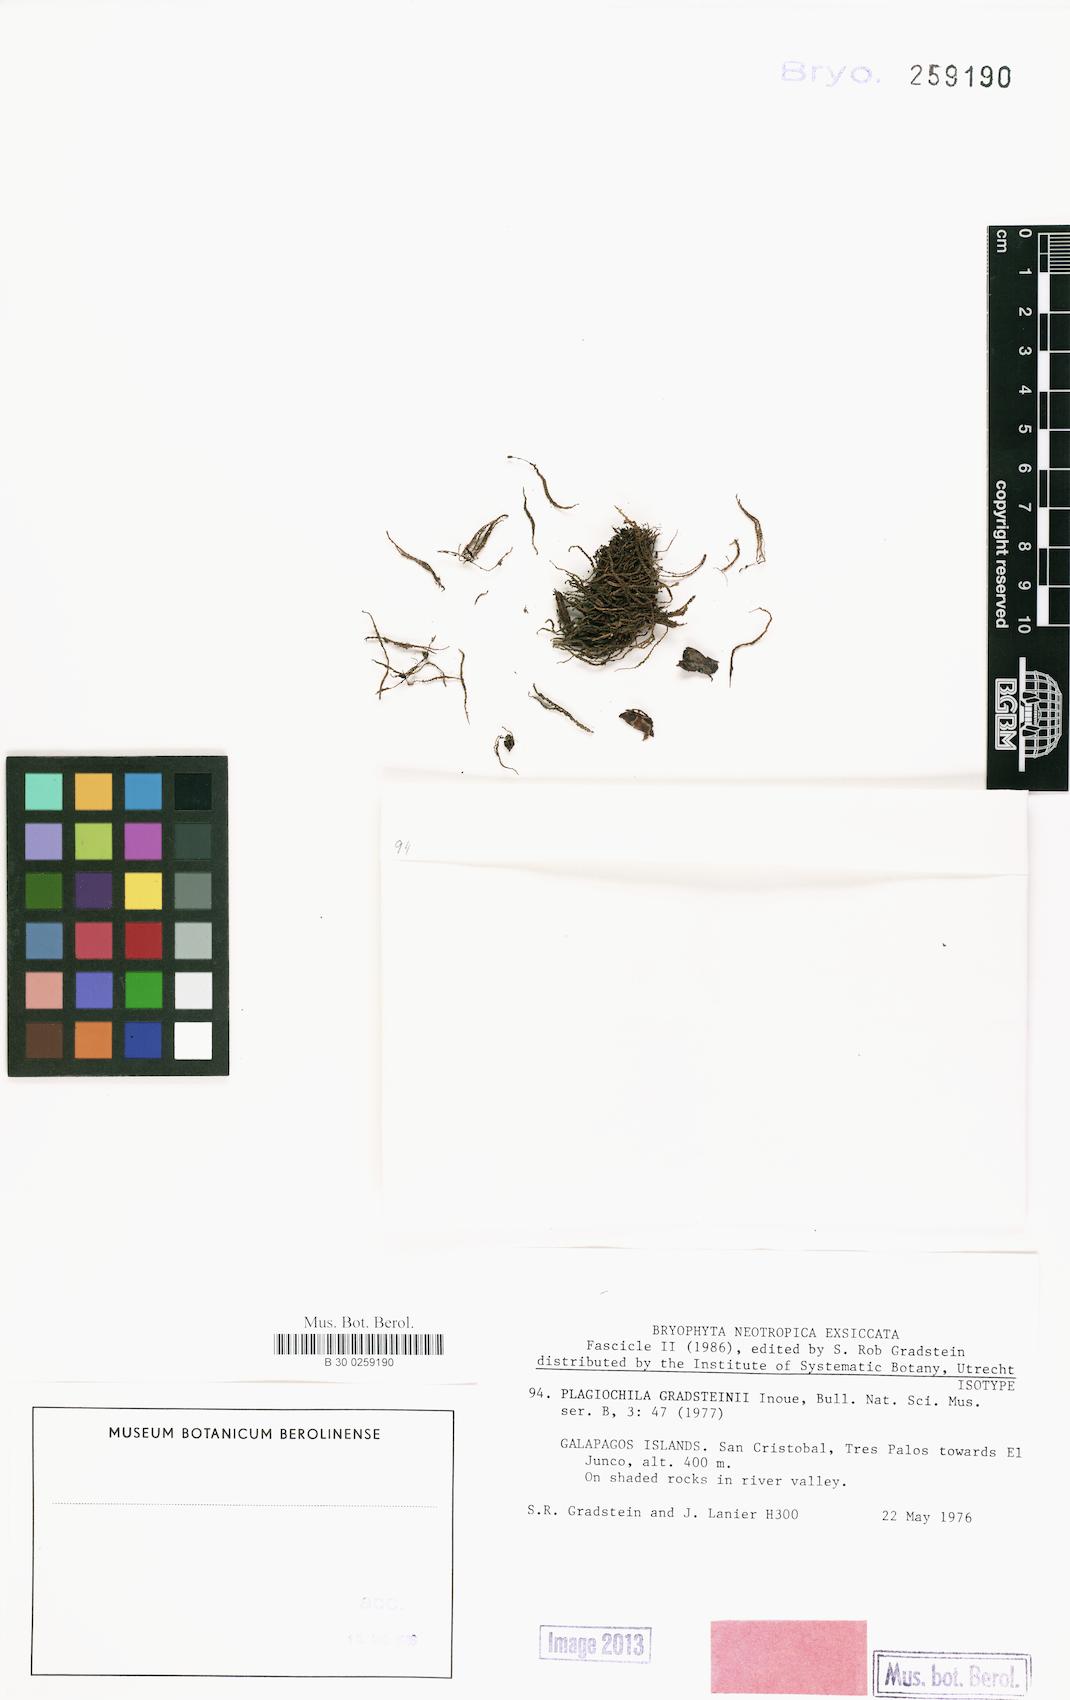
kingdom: Plantae
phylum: Marchantiophyta
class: Jungermanniopsida
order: Jungermanniales
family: Plagiochilaceae
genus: Plagiochila
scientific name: Plagiochila bifaria
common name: Killarney featherwort
